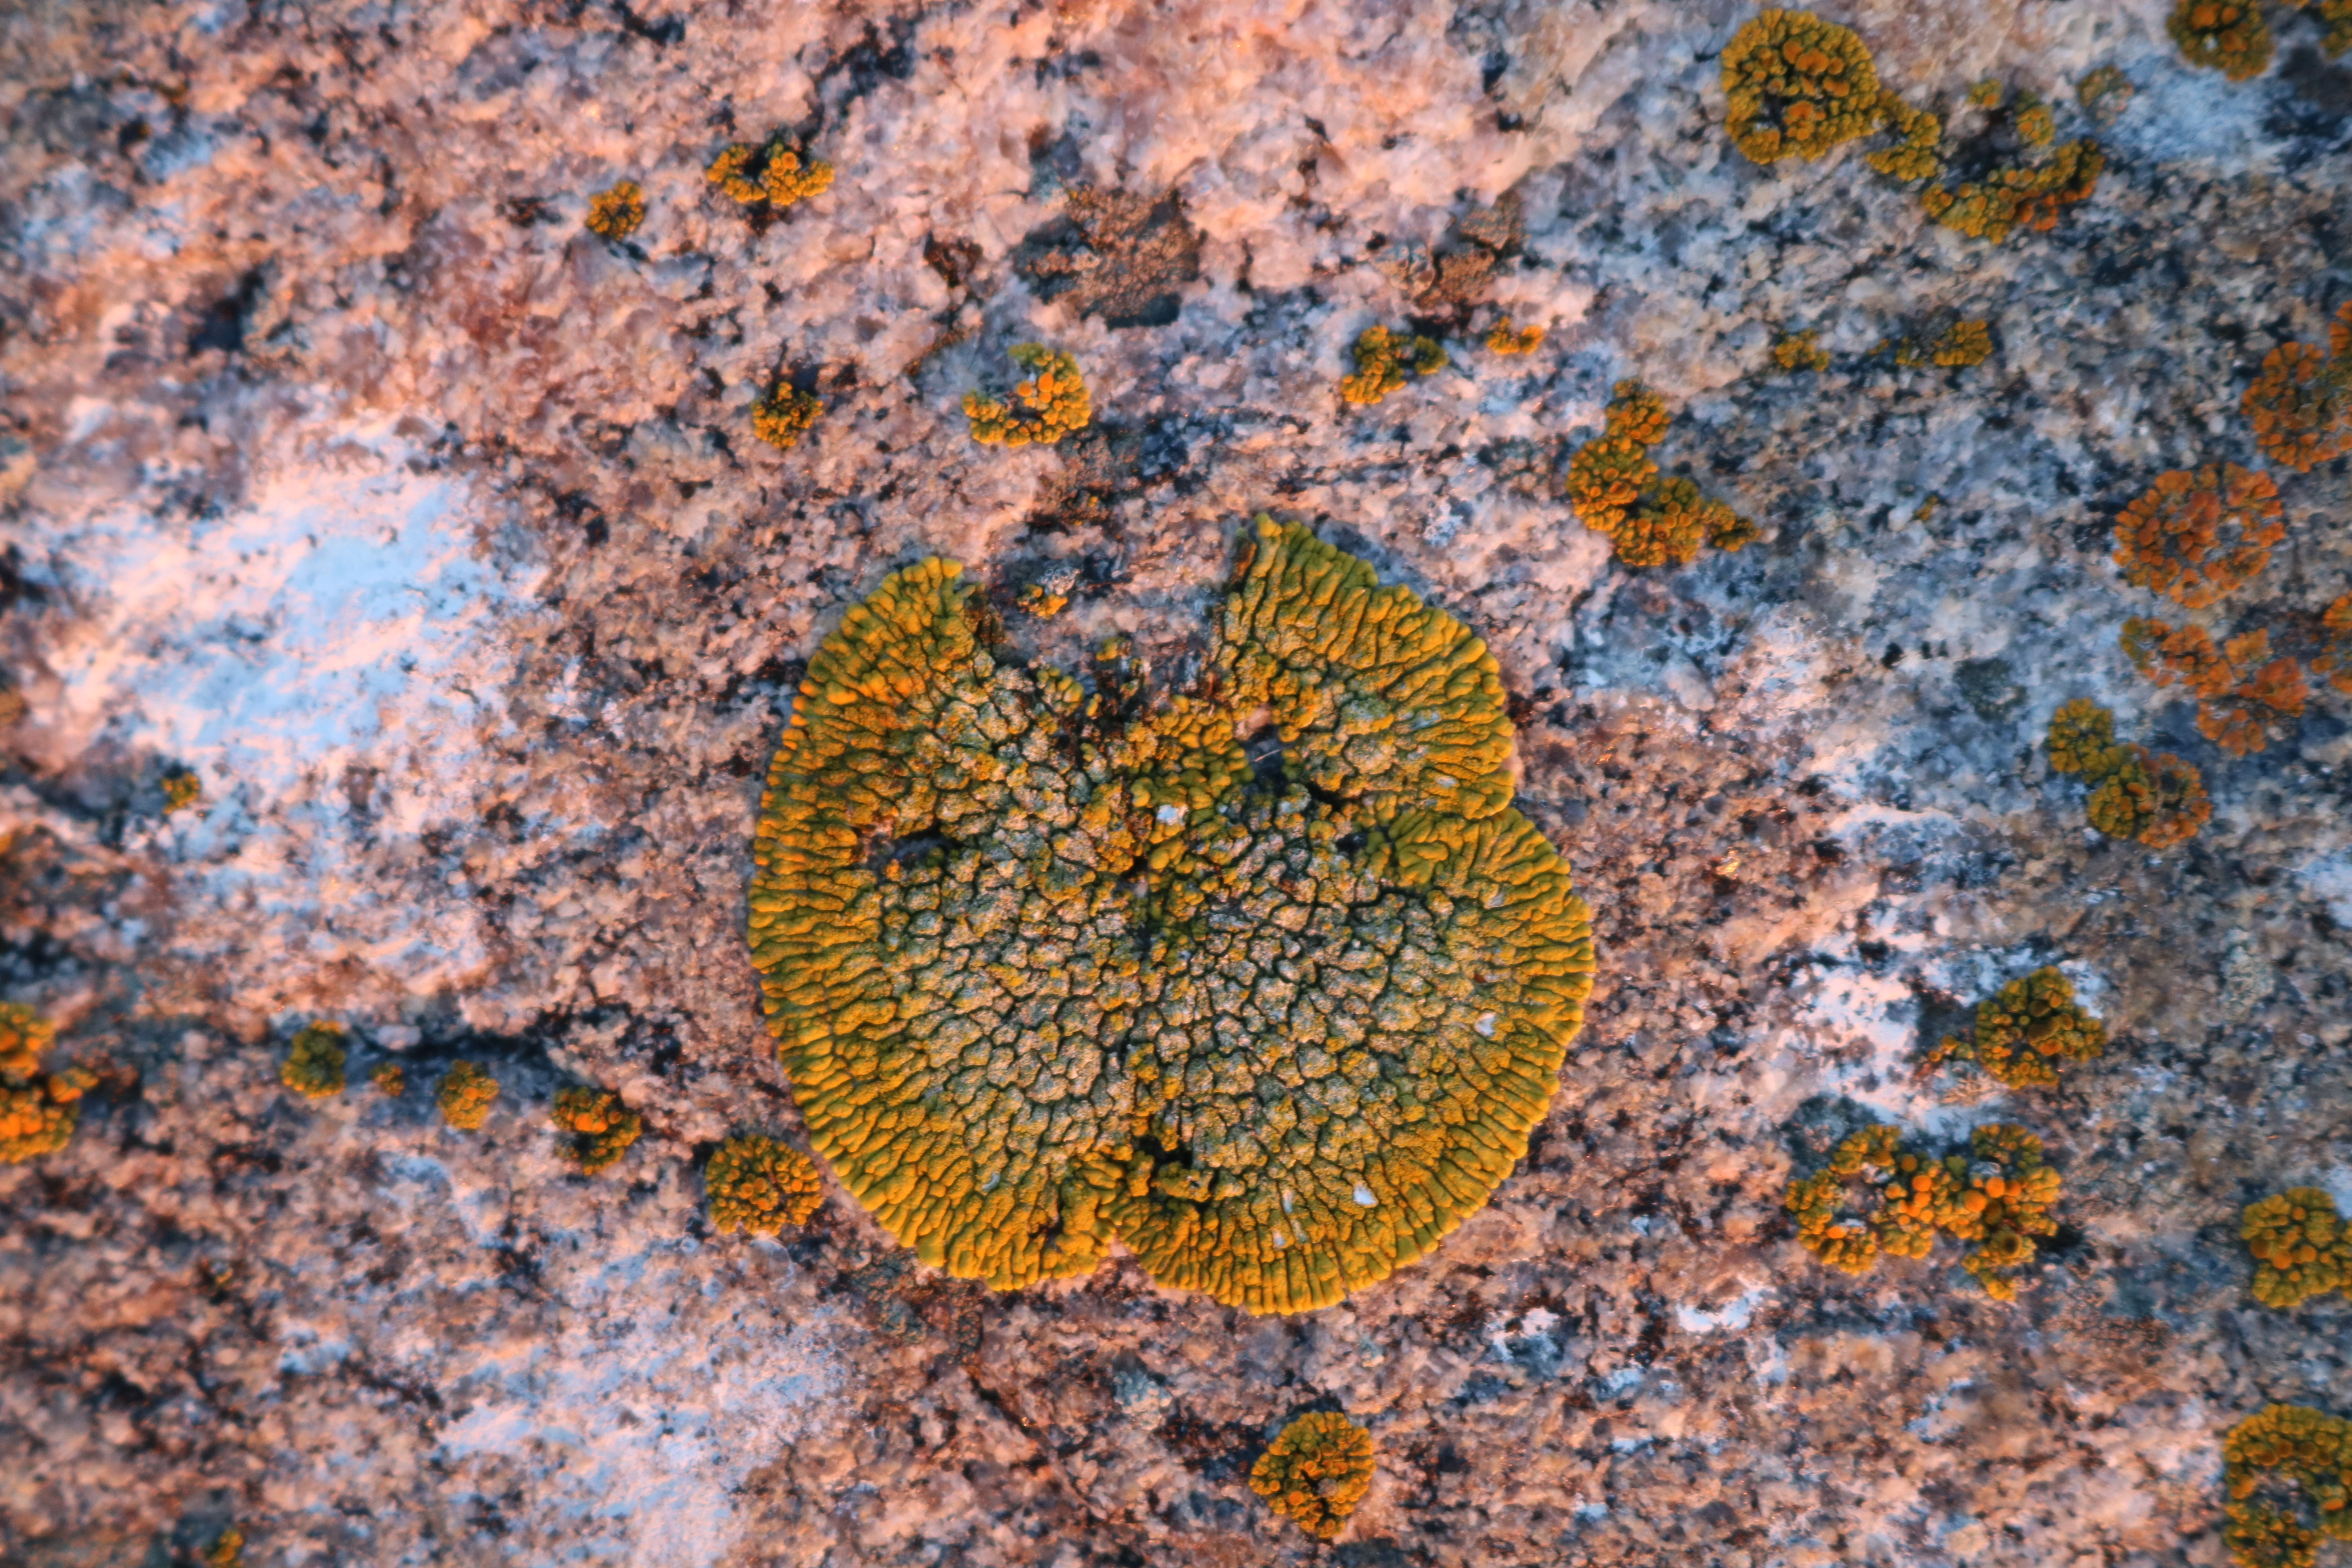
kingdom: Fungi
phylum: Ascomycota
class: Lecanoromycetes
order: Teloschistales
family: Teloschistaceae
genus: Verrucoplaca
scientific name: Verrucoplaca verruculifera
